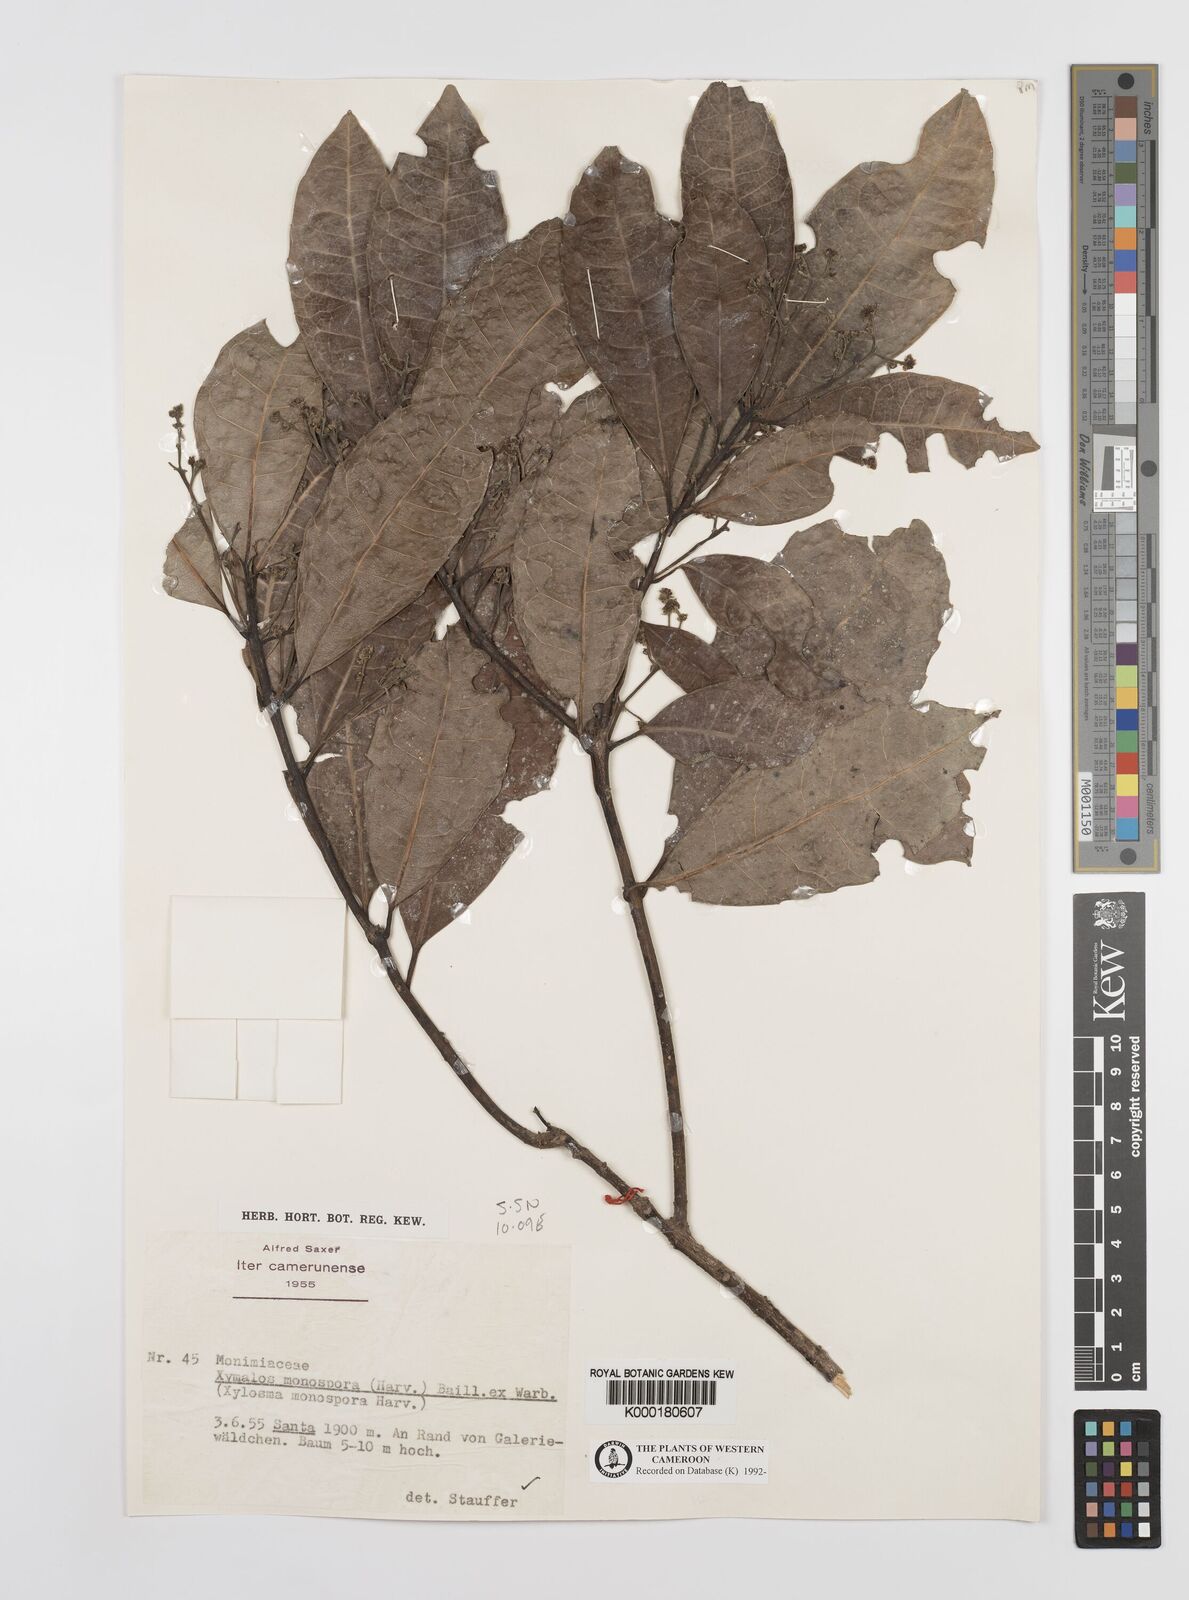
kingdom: Plantae
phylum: Tracheophyta
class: Magnoliopsida
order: Laurales
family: Monimiaceae
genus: Xymalos
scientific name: Xymalos
